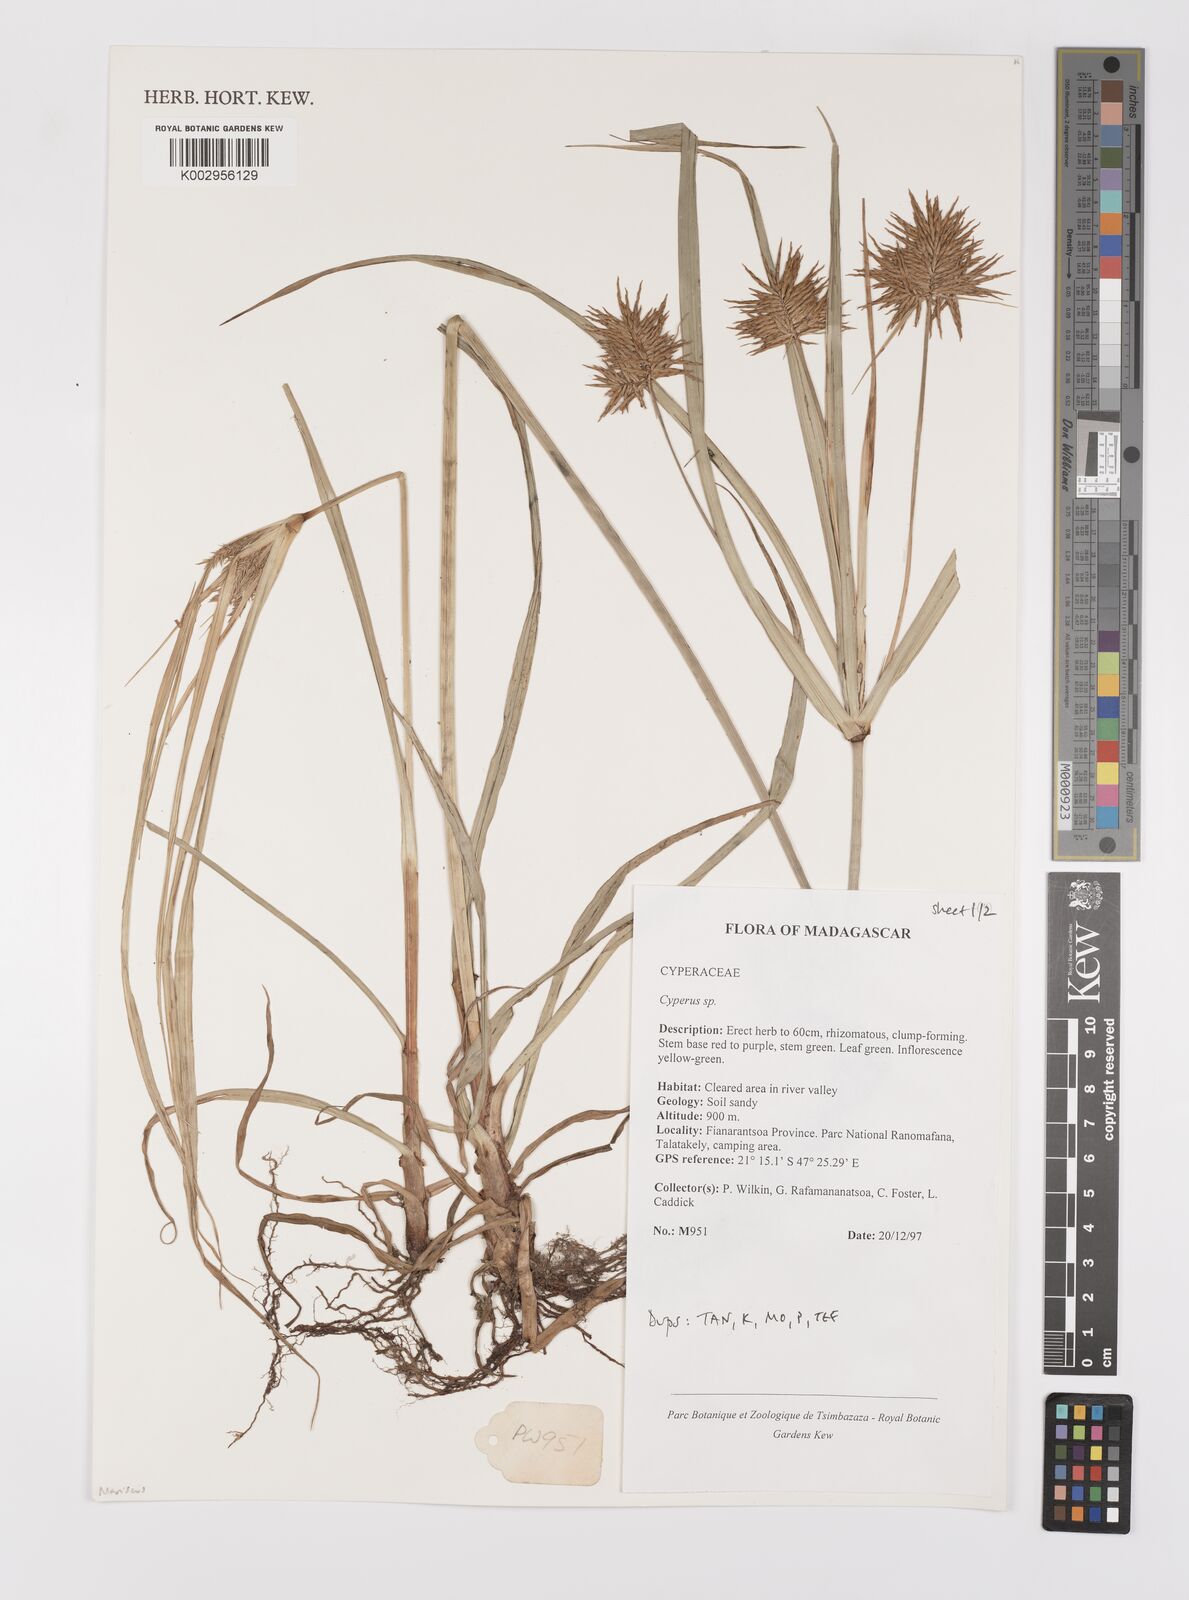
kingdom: Plantae
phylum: Tracheophyta
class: Liliopsida
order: Poales
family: Cyperaceae
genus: Cyperus
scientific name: Cyperus
